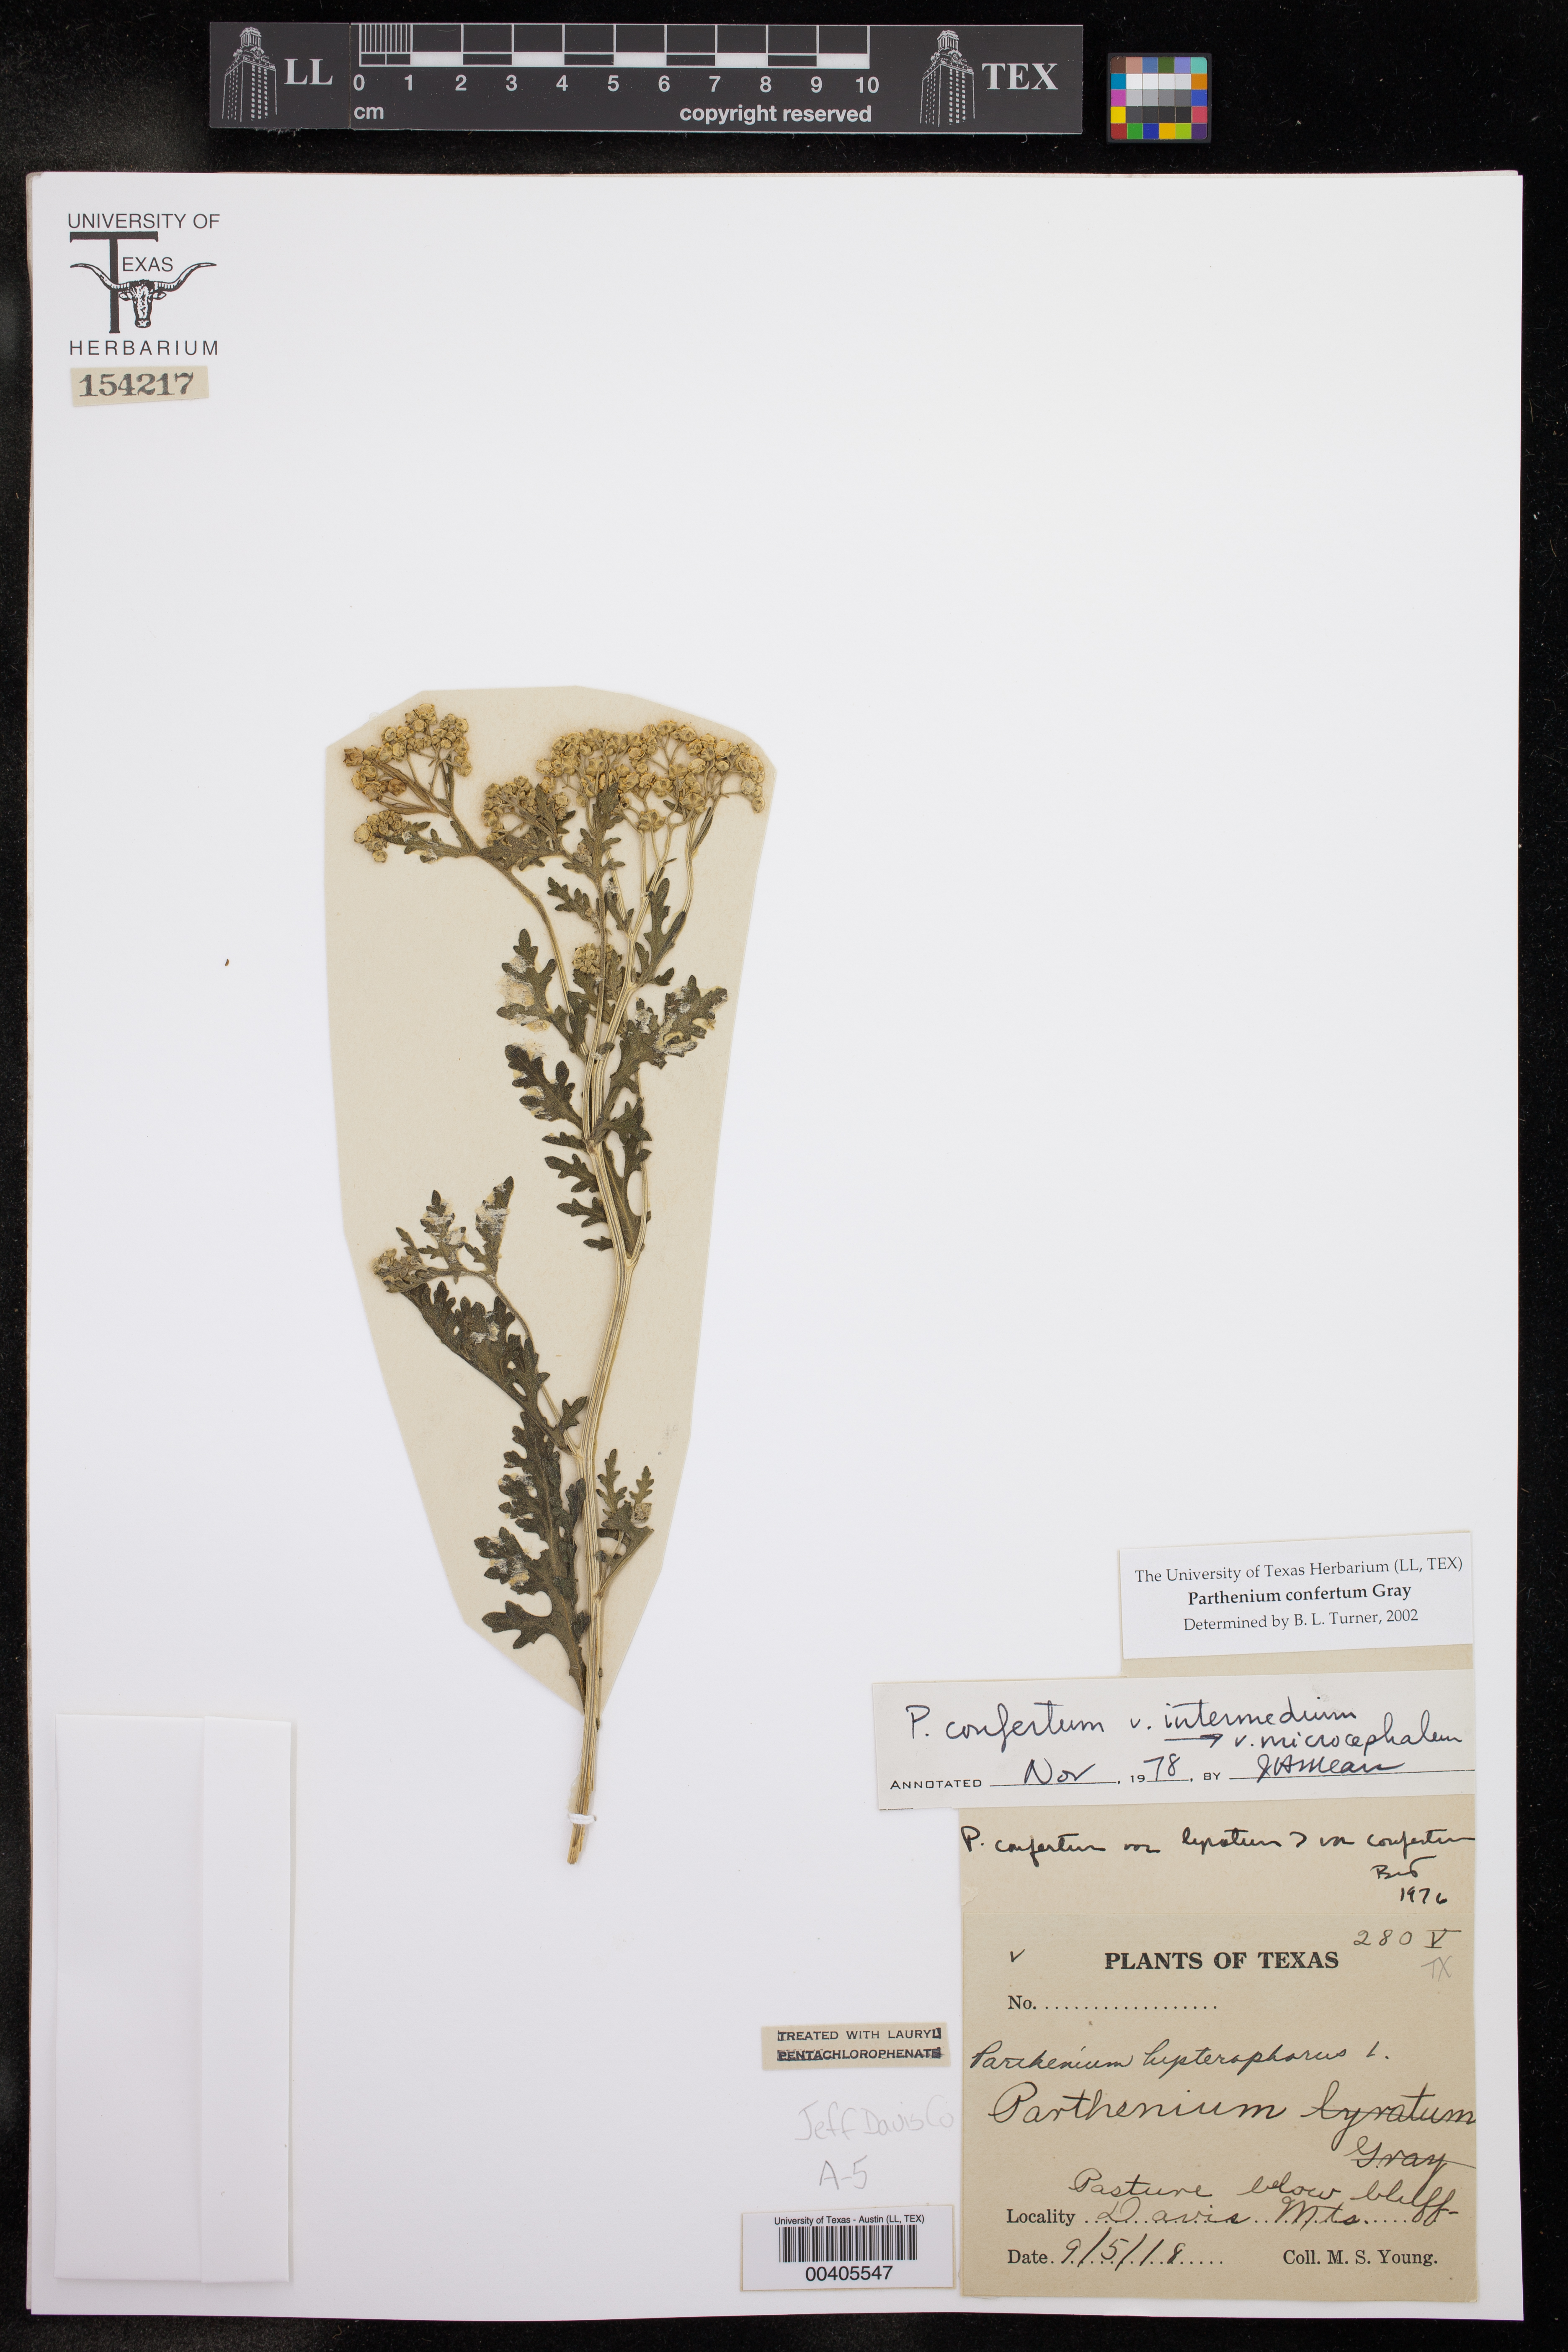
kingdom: Plantae
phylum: Tracheophyta
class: Magnoliopsida
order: Asterales
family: Asteraceae
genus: Parthenium
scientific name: Parthenium confertum
